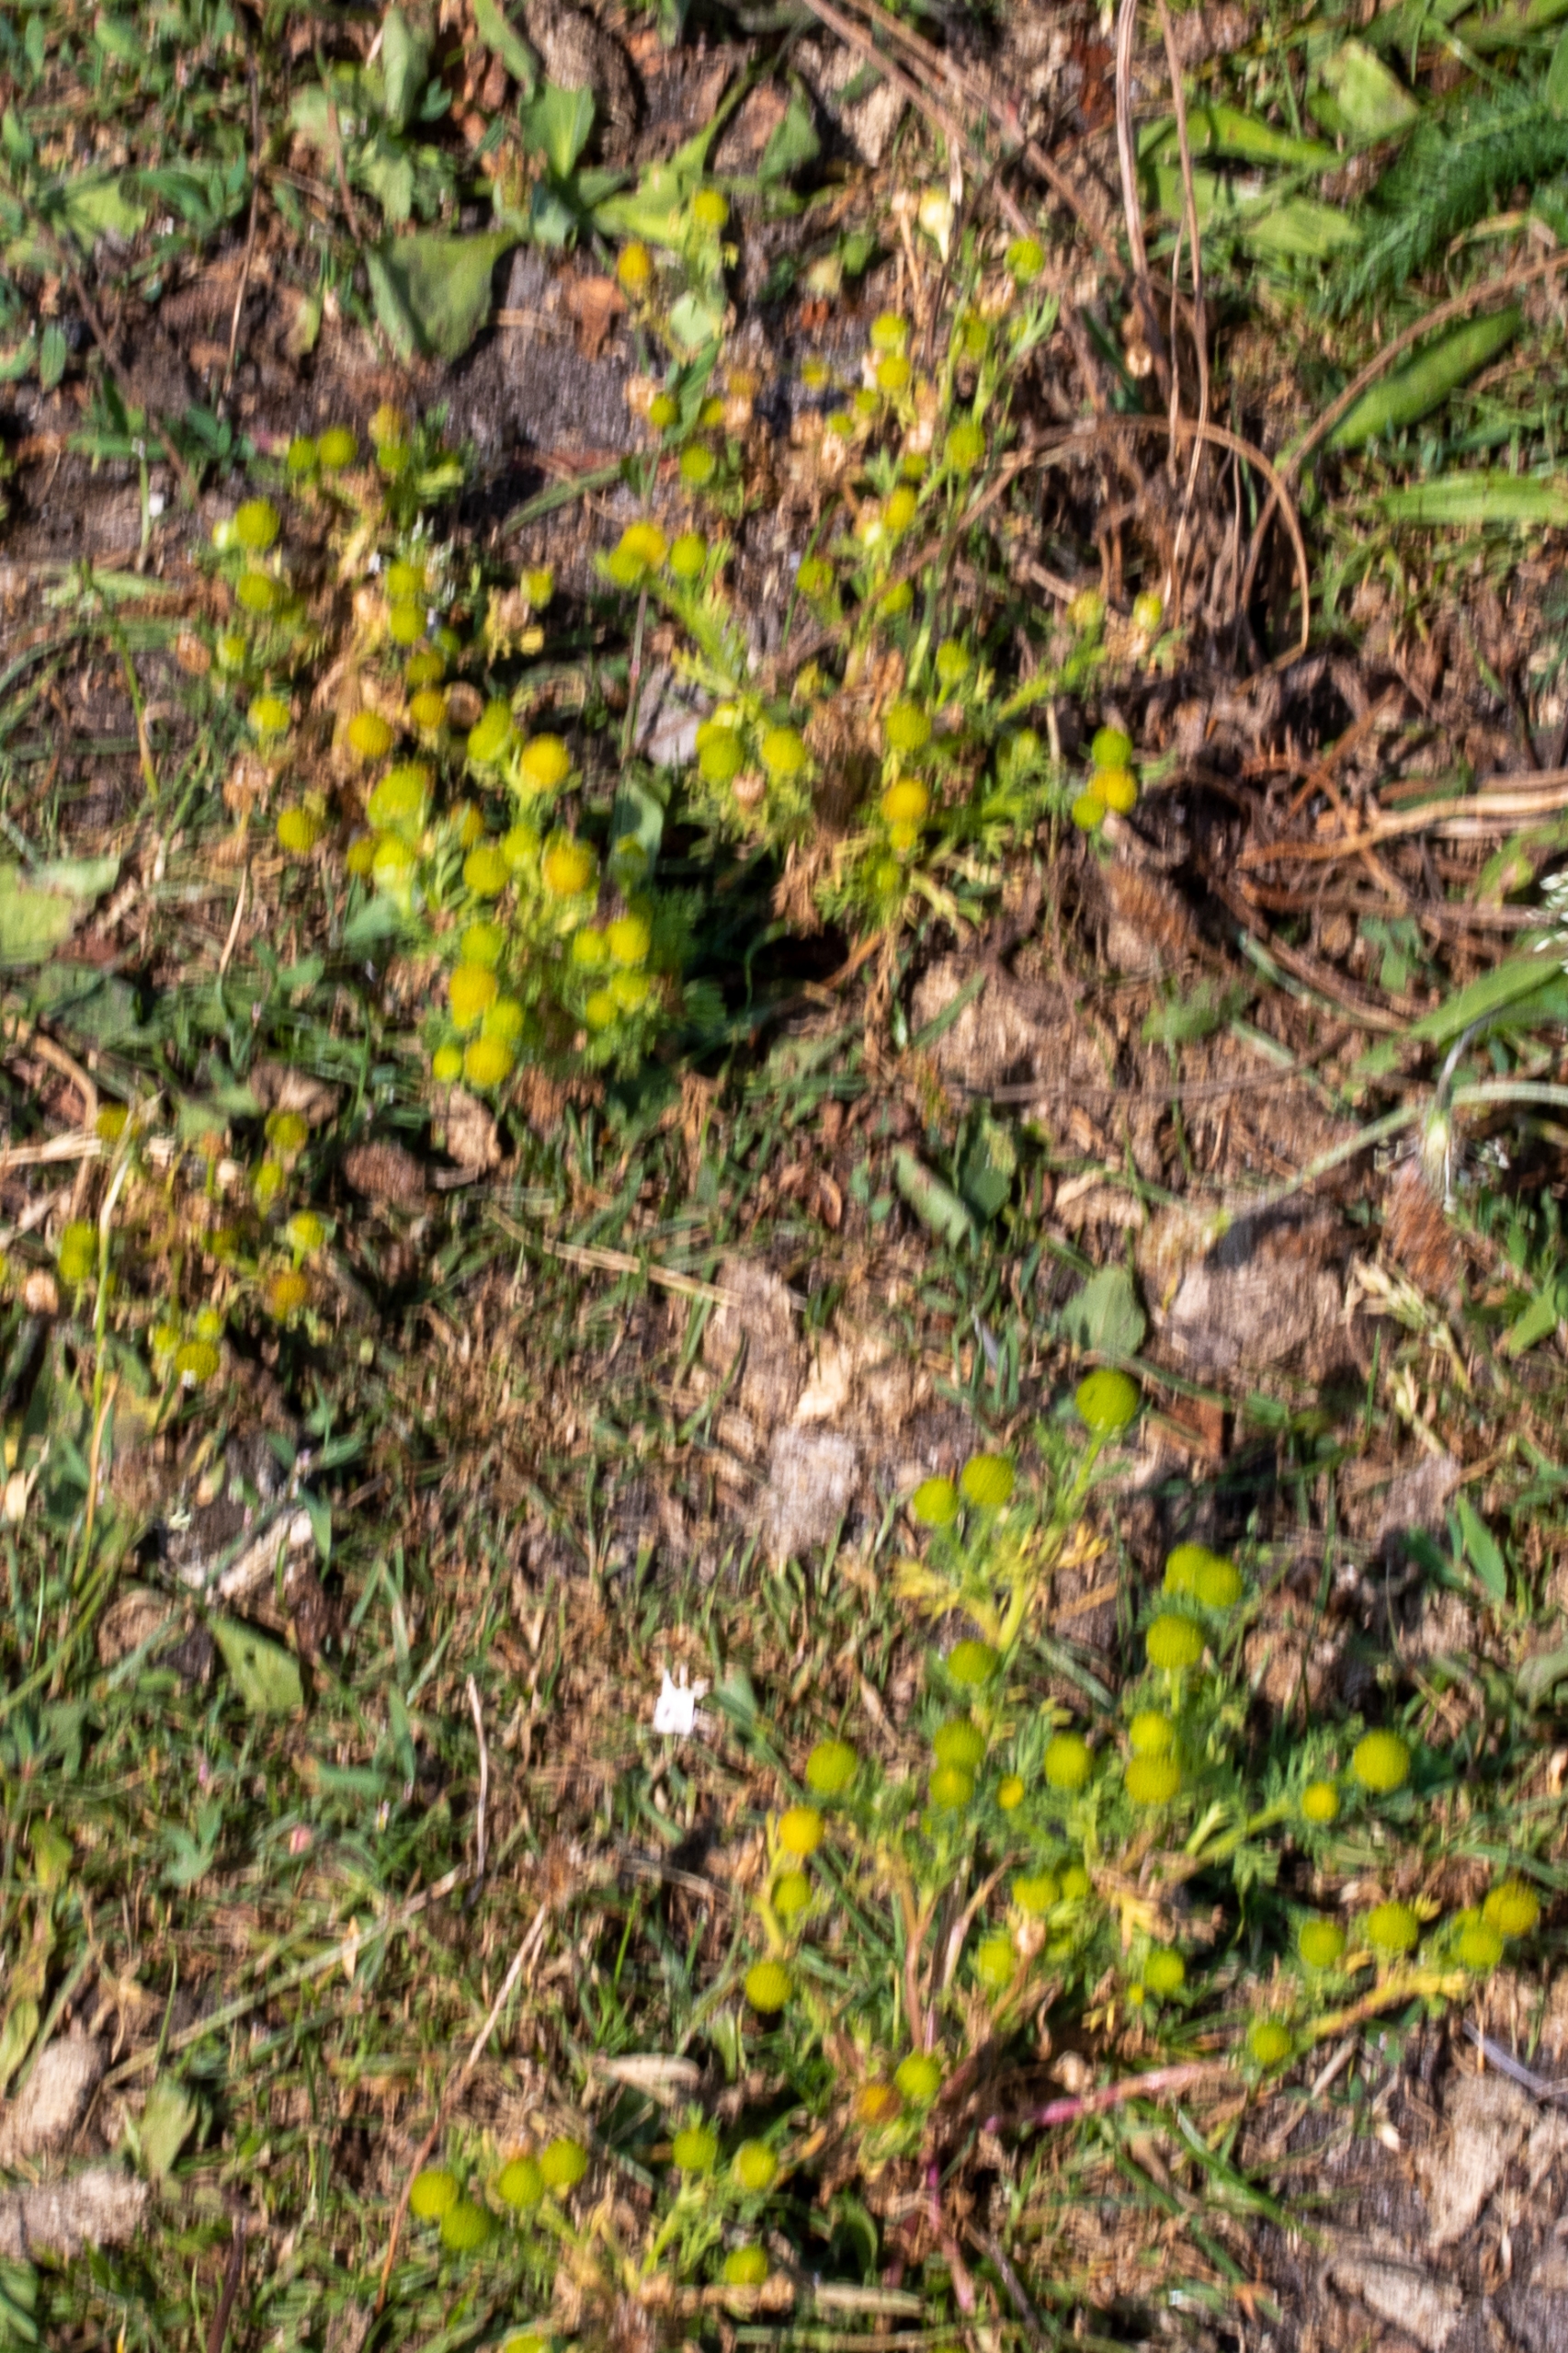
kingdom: Plantae
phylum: Tracheophyta
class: Magnoliopsida
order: Asterales
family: Asteraceae
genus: Matricaria
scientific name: Matricaria discoidea
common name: Skive-kamille
